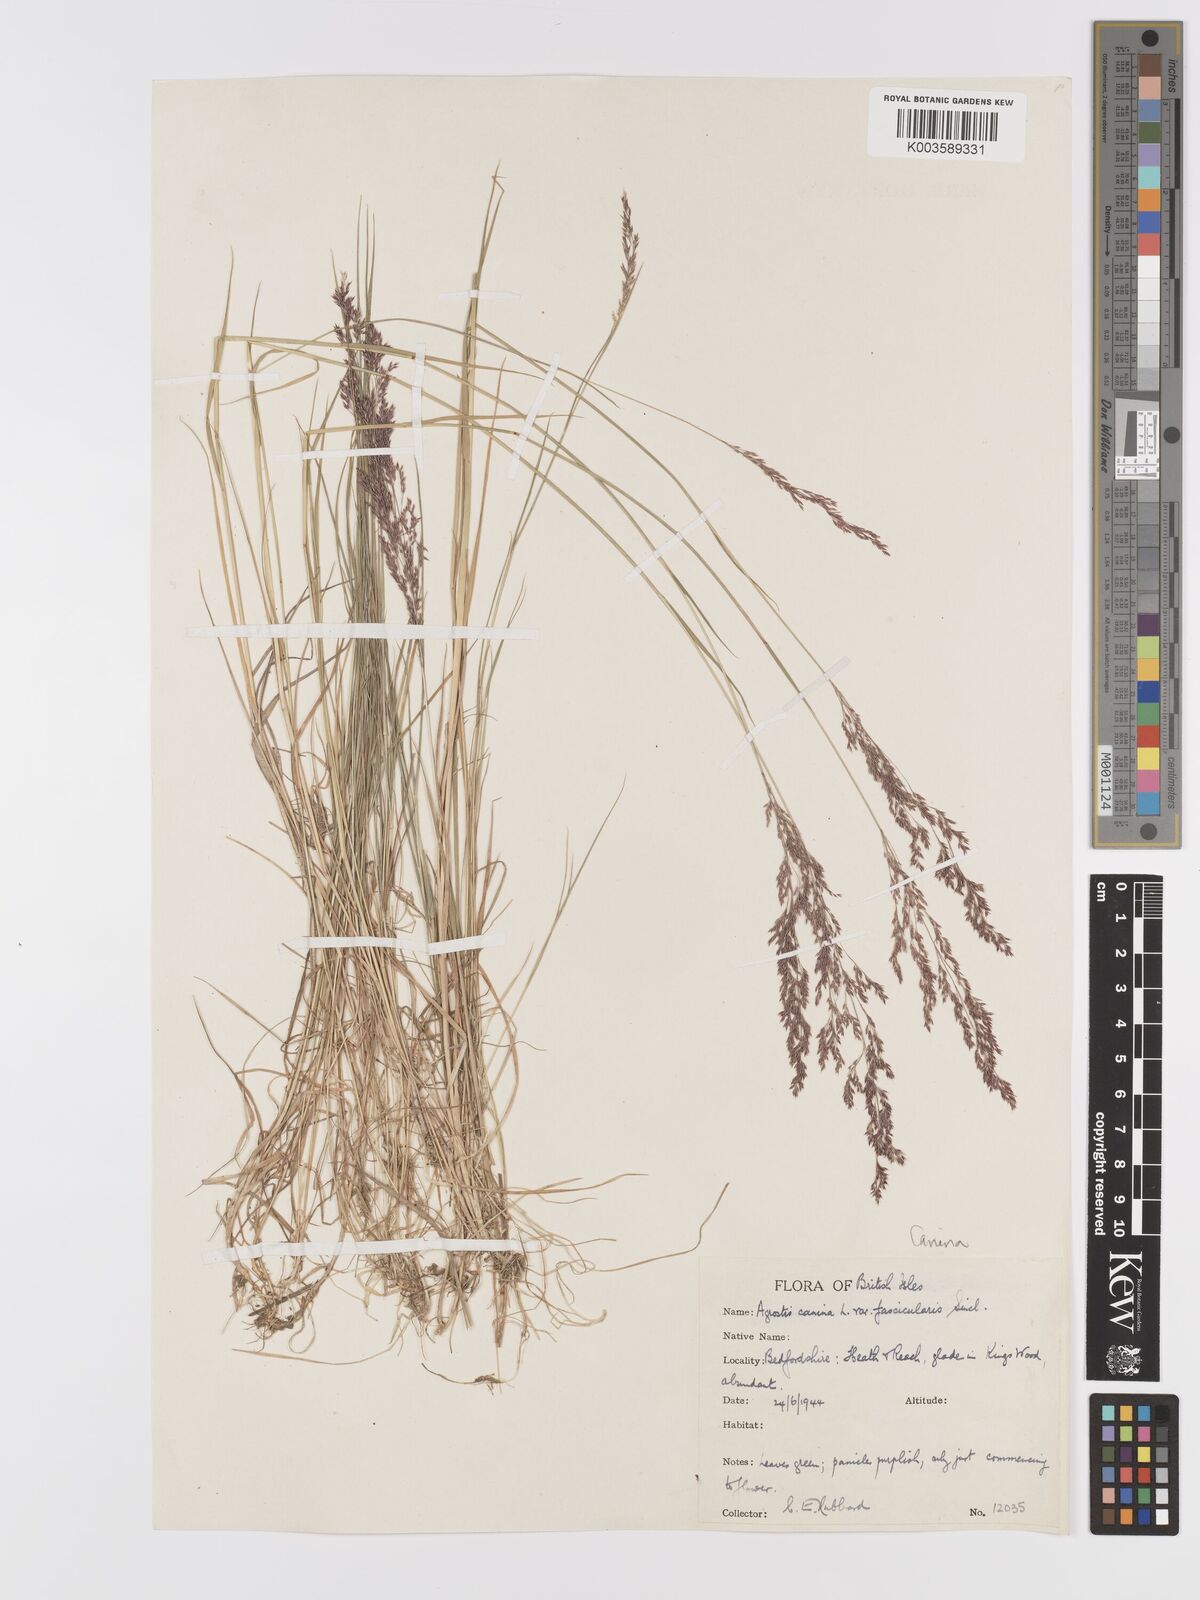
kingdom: Plantae
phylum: Tracheophyta
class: Liliopsida
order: Poales
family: Poaceae
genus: Agrostis
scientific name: Agrostis canina
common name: Velvet bent
